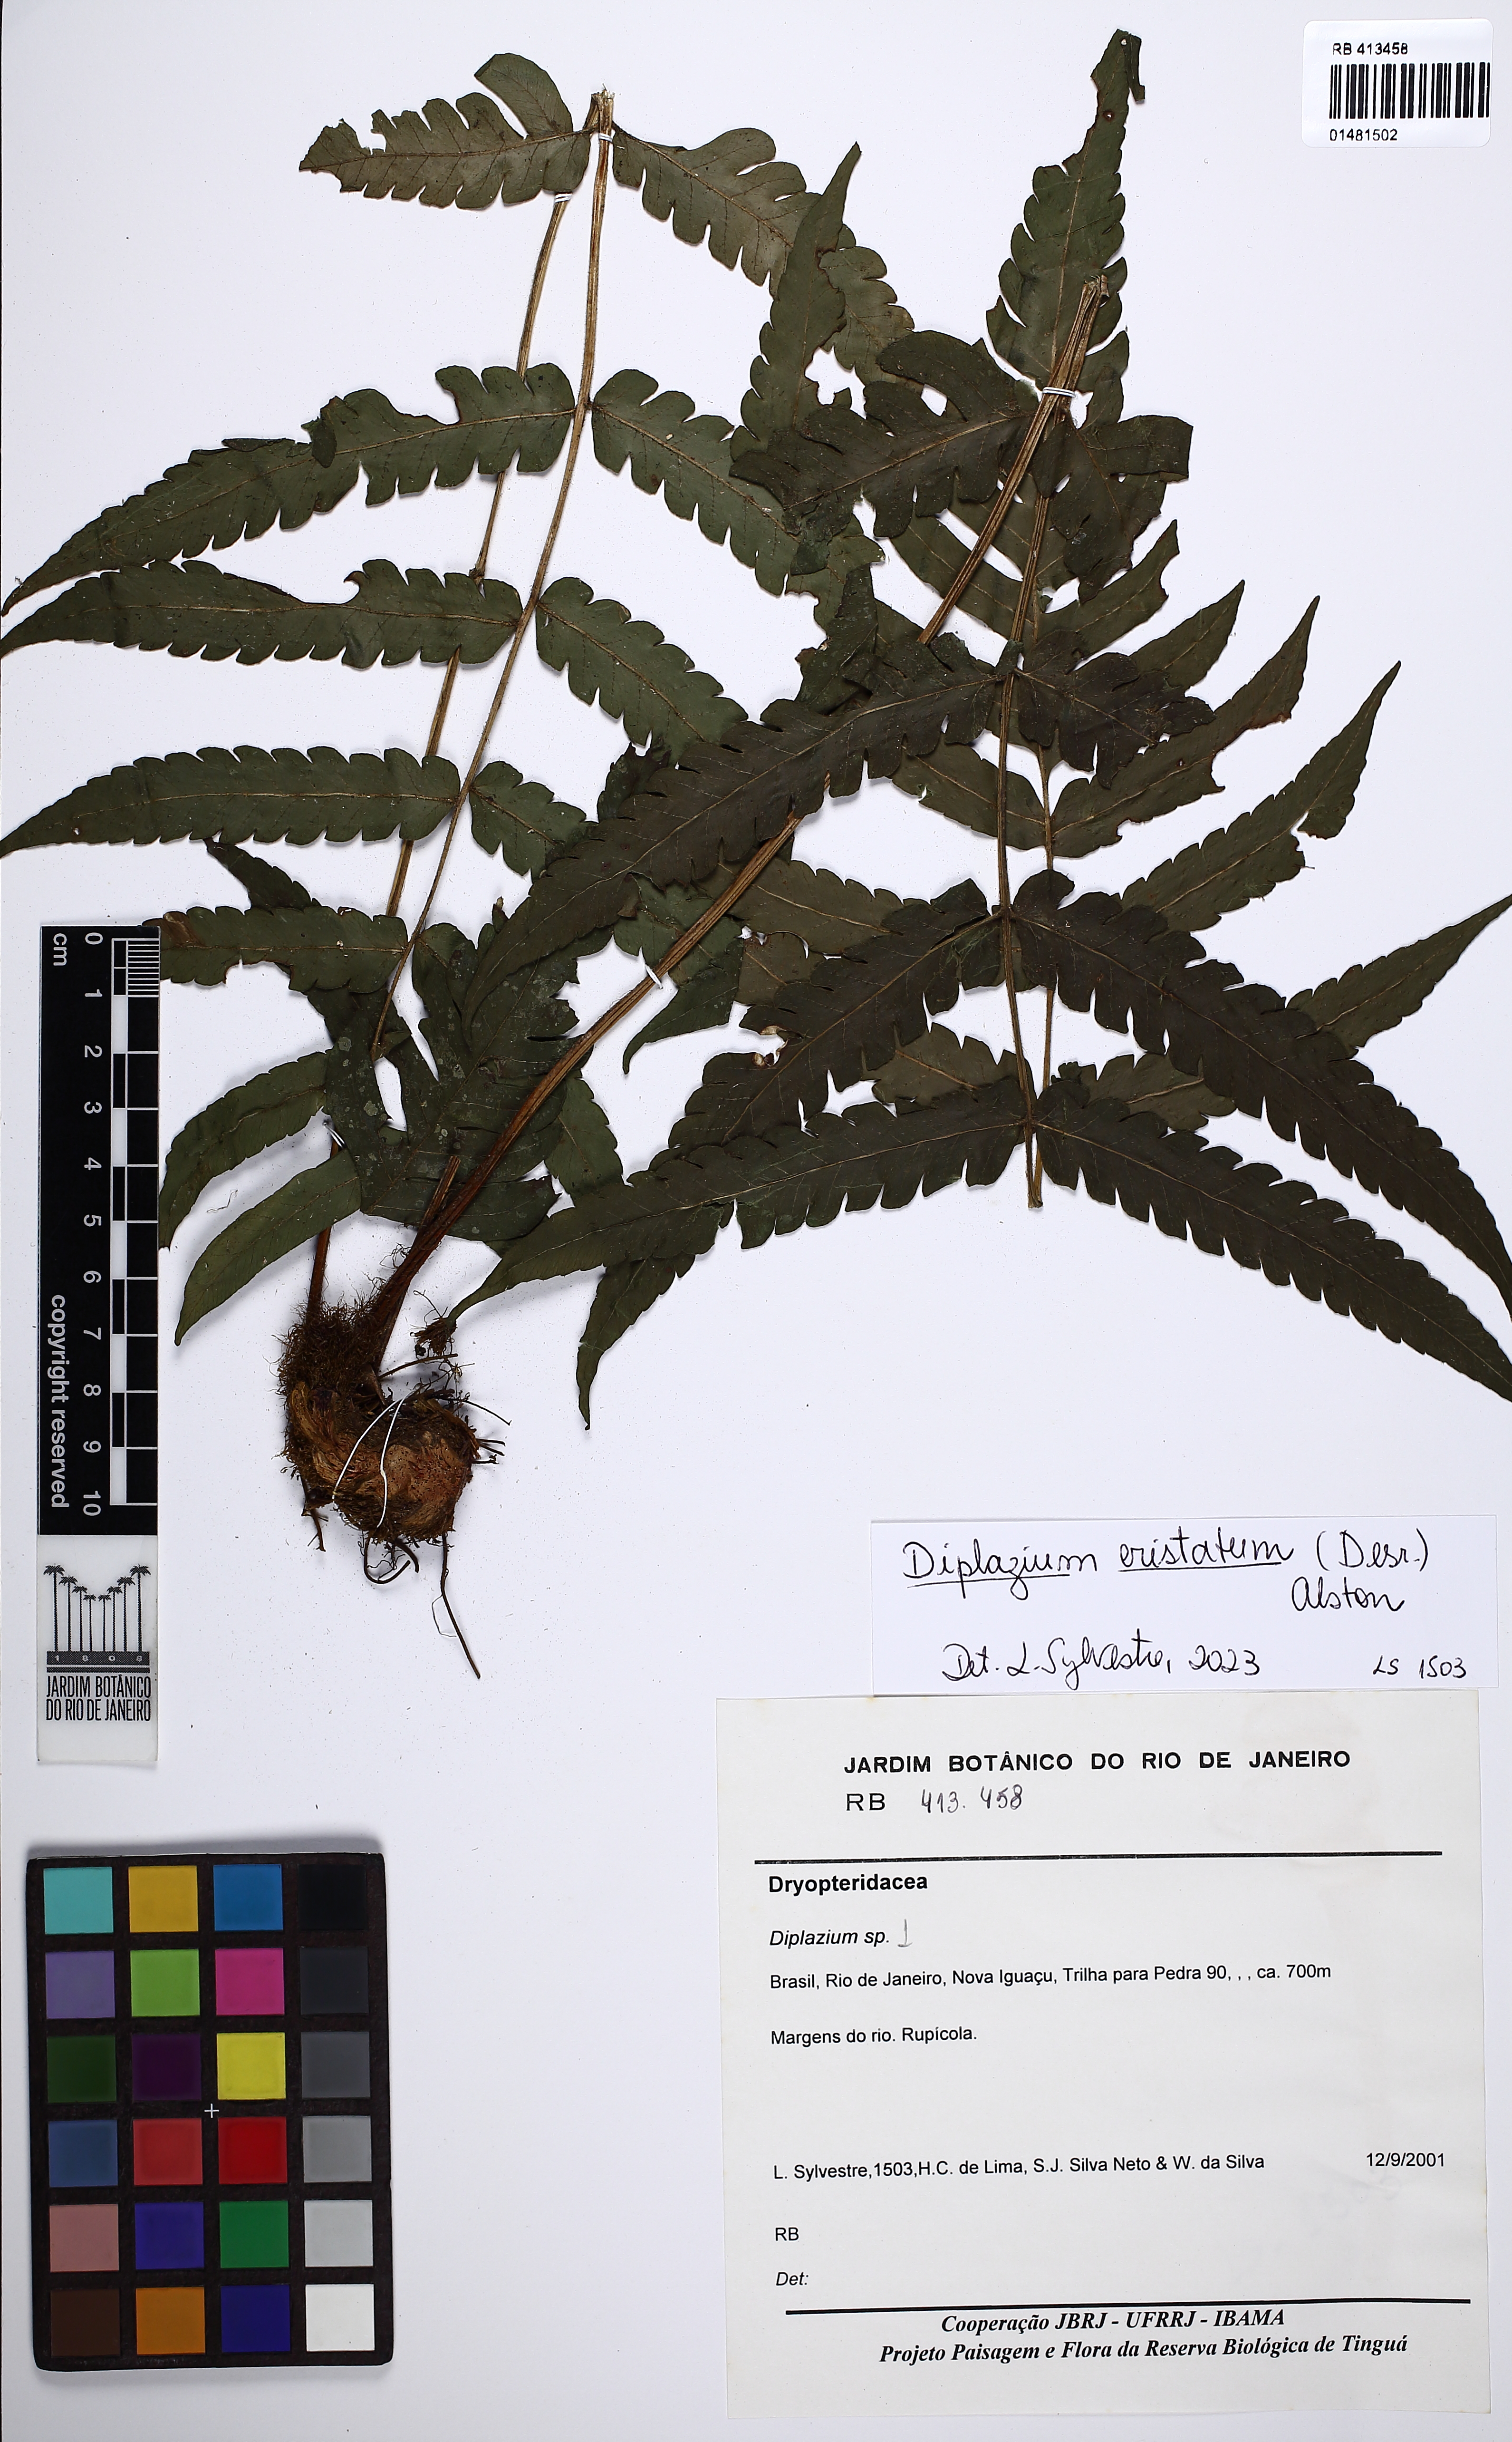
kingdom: Plantae
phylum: Tracheophyta
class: Polypodiopsida
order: Polypodiales
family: Athyriaceae
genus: Diplazium
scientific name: Diplazium cristatum
